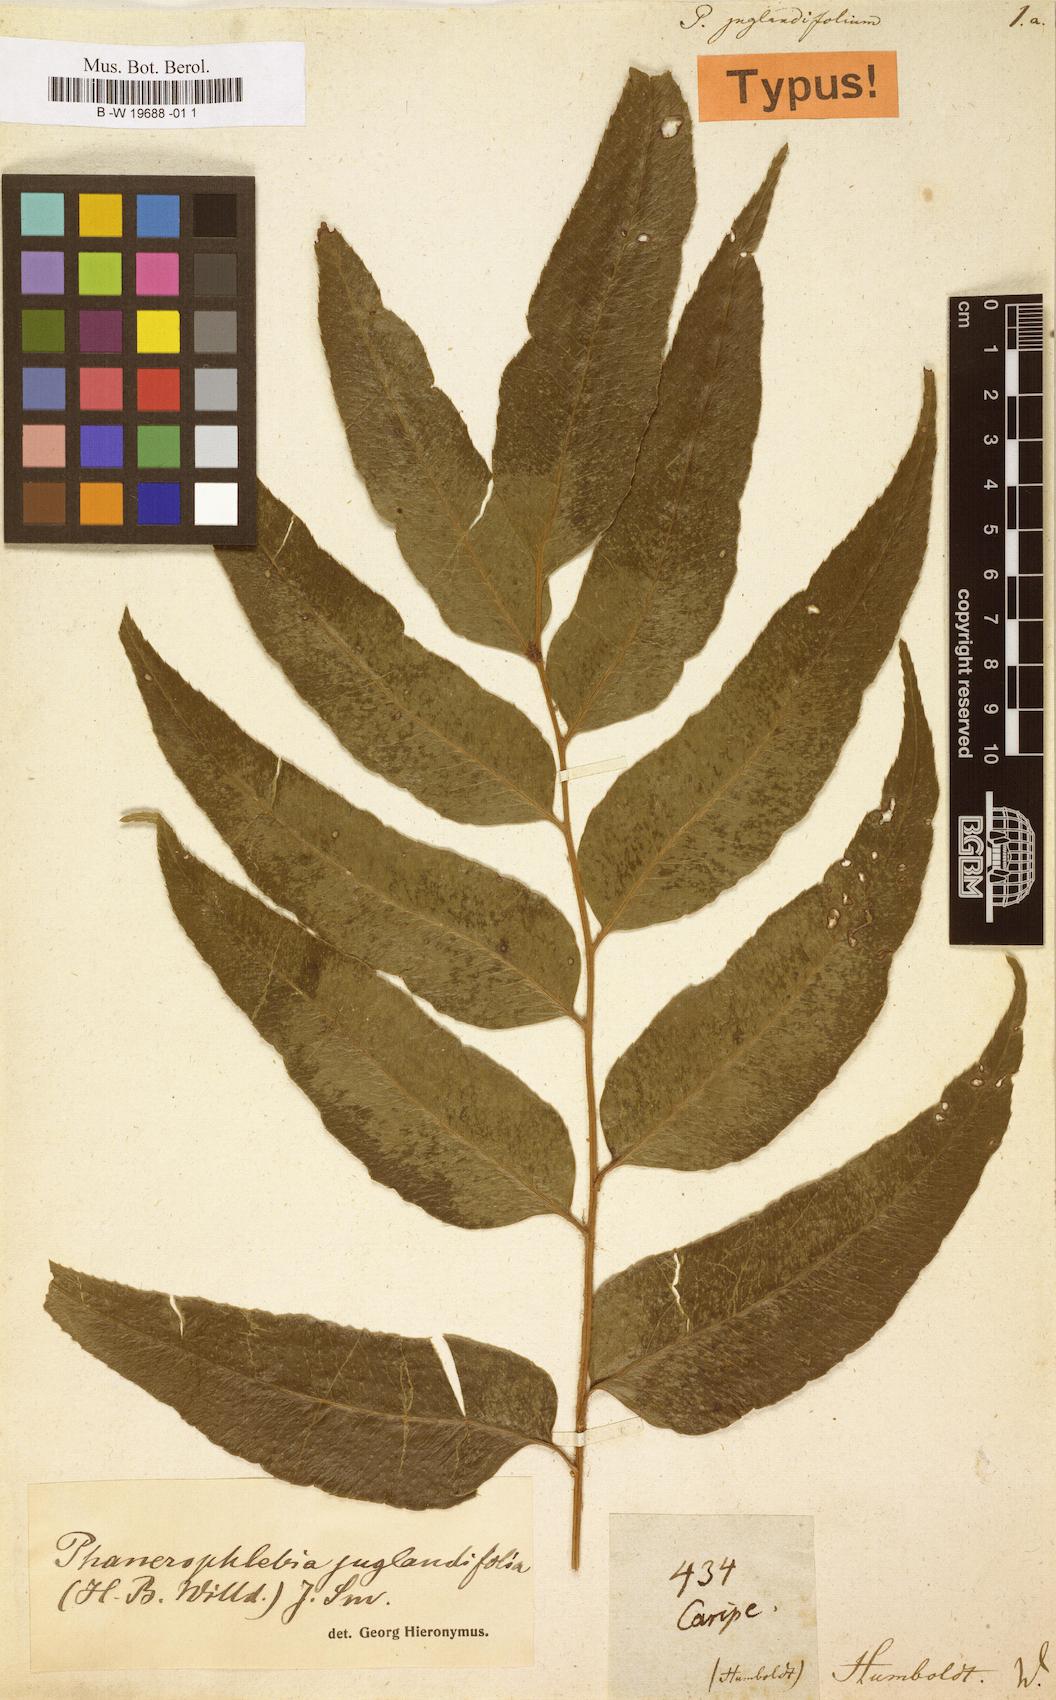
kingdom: Plantae
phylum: Tracheophyta
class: Polypodiopsida
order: Polypodiales
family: Dryopteridaceae
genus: Phanerophlebia
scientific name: Phanerophlebia juglandifolia
